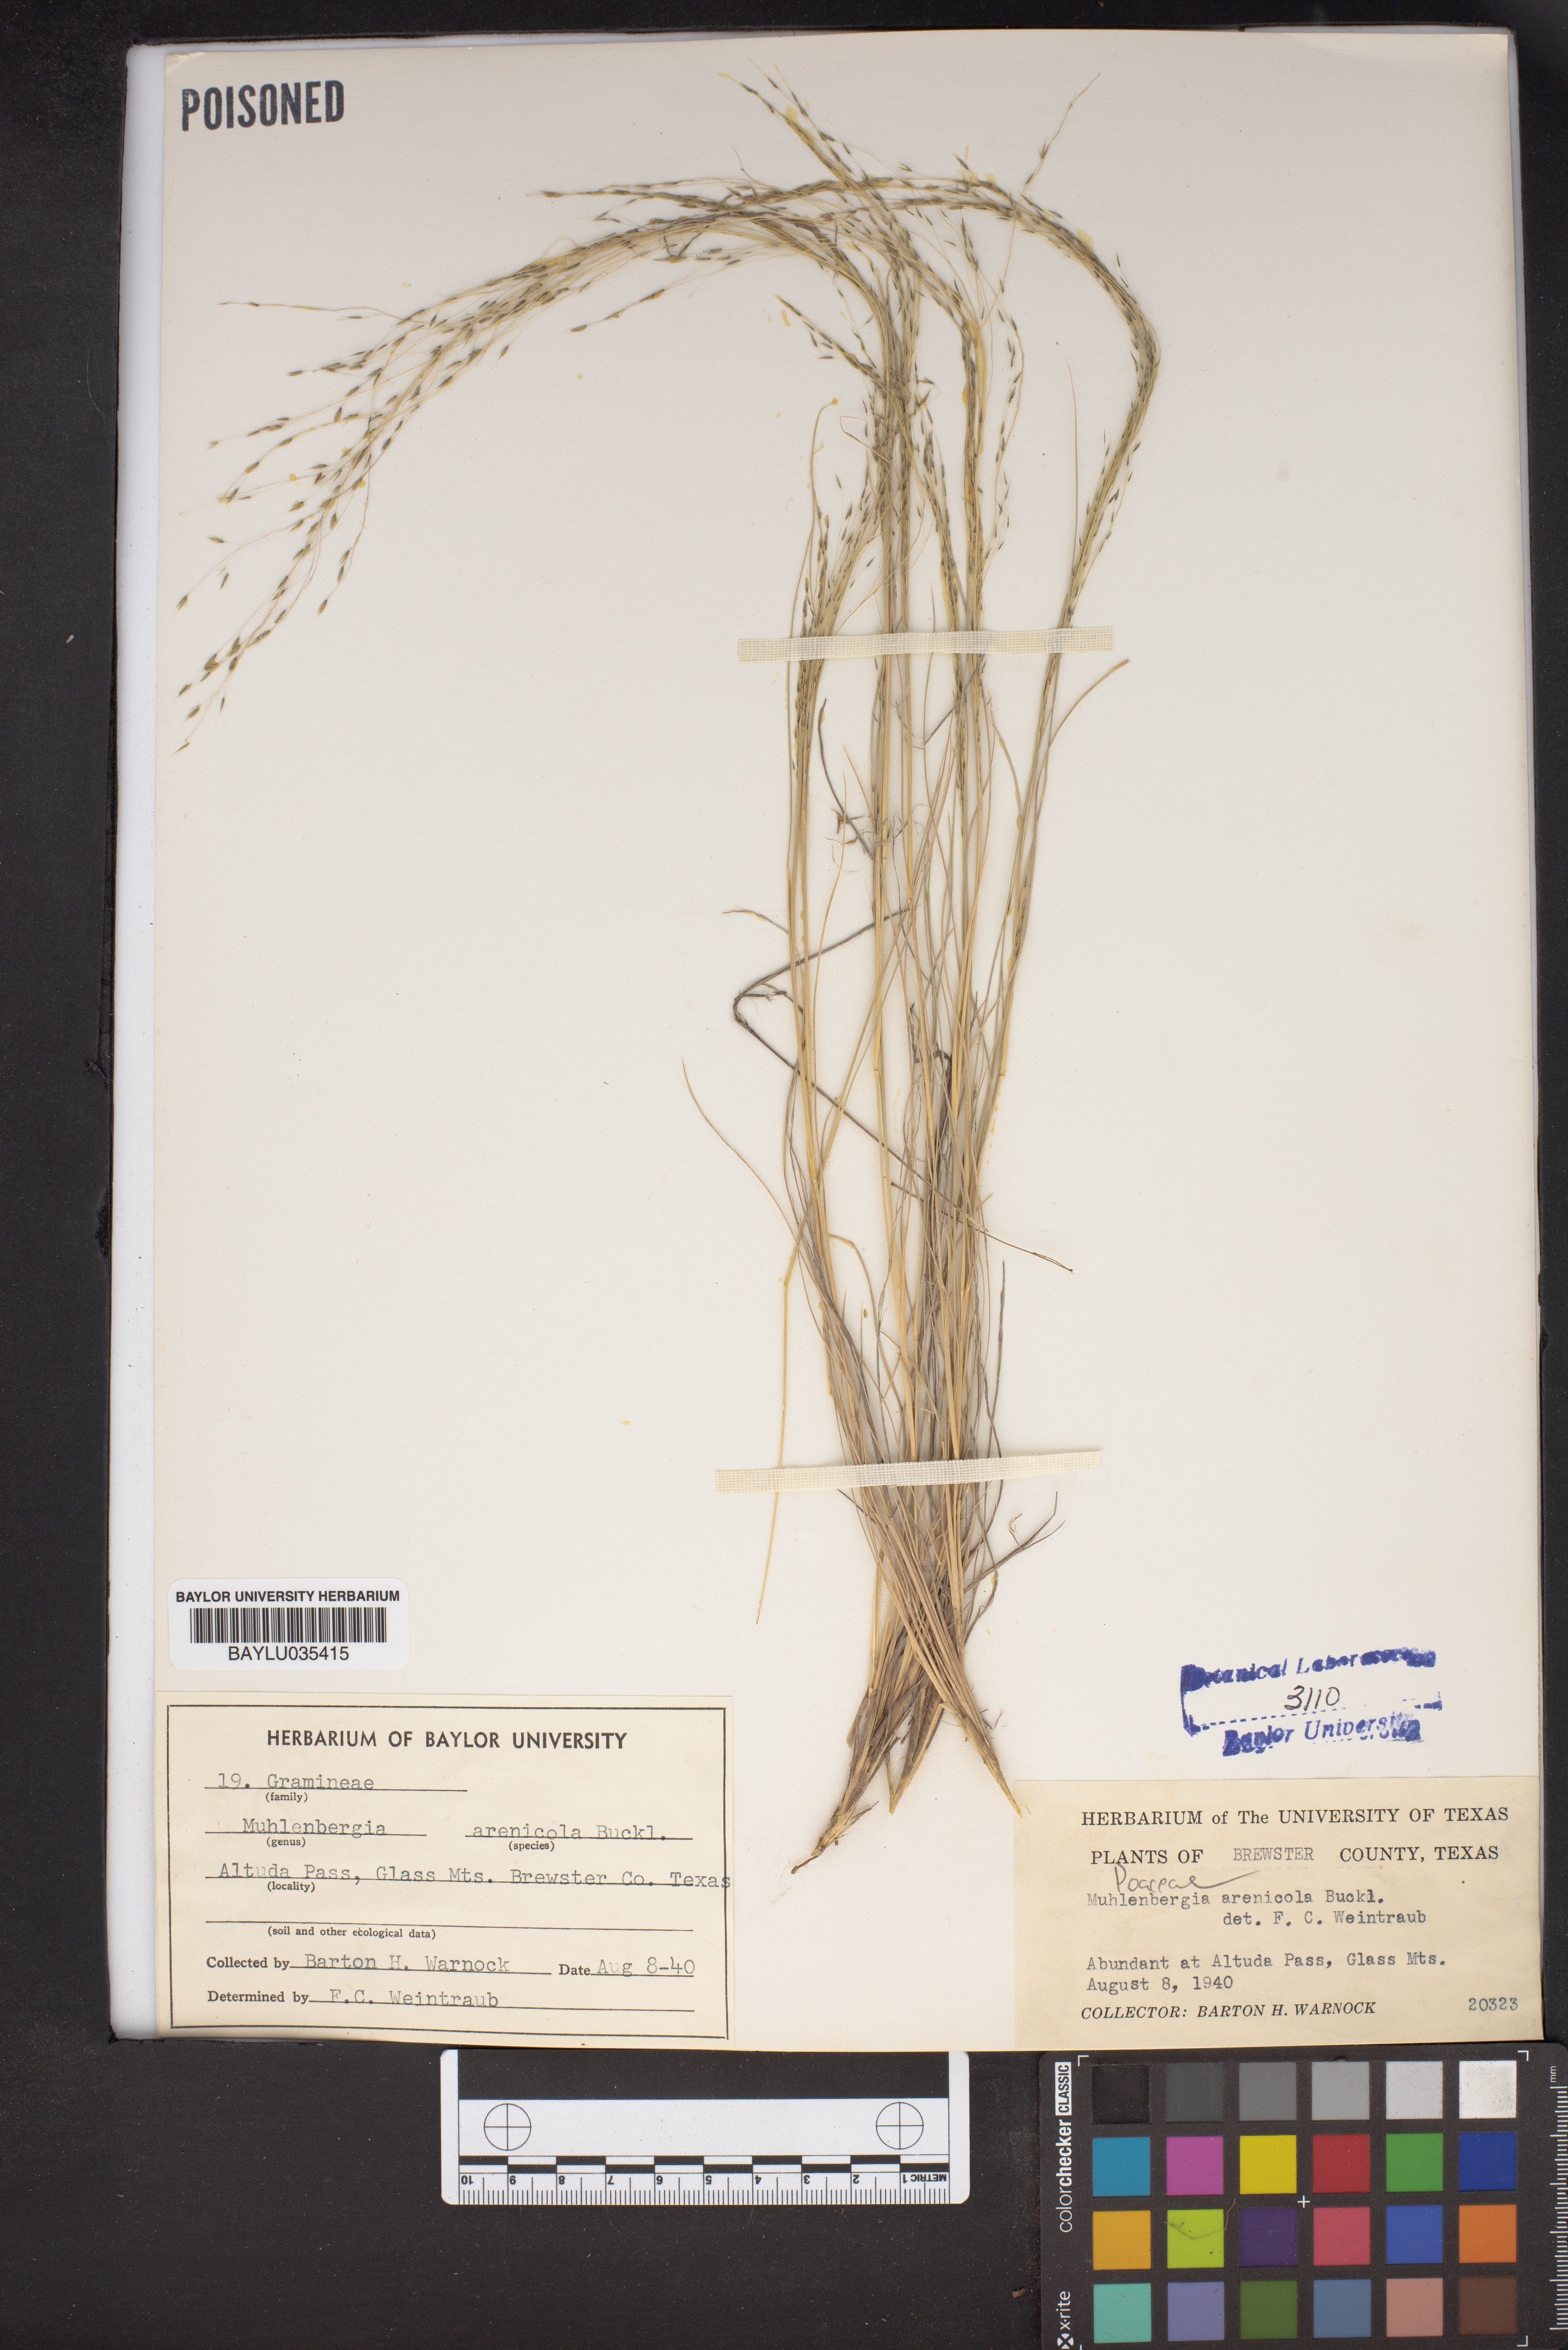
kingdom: Plantae
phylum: Tracheophyta
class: Liliopsida
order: Poales
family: Poaceae
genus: Muhlenbergia
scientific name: Muhlenbergia arenicola
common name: Sand muhly
